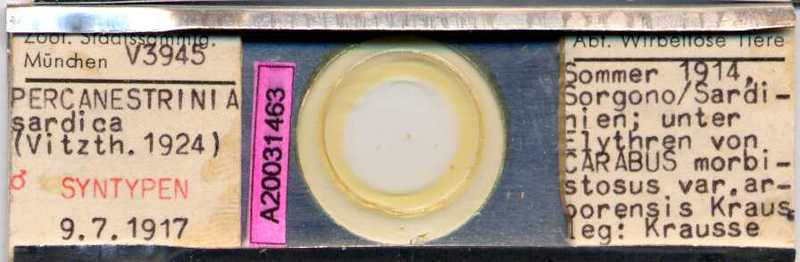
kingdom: Animalia
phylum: Arthropoda
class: Arachnida
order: Sarcoptiformes
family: Canestriniidae
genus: Canestrinia
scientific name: Canestrinia
